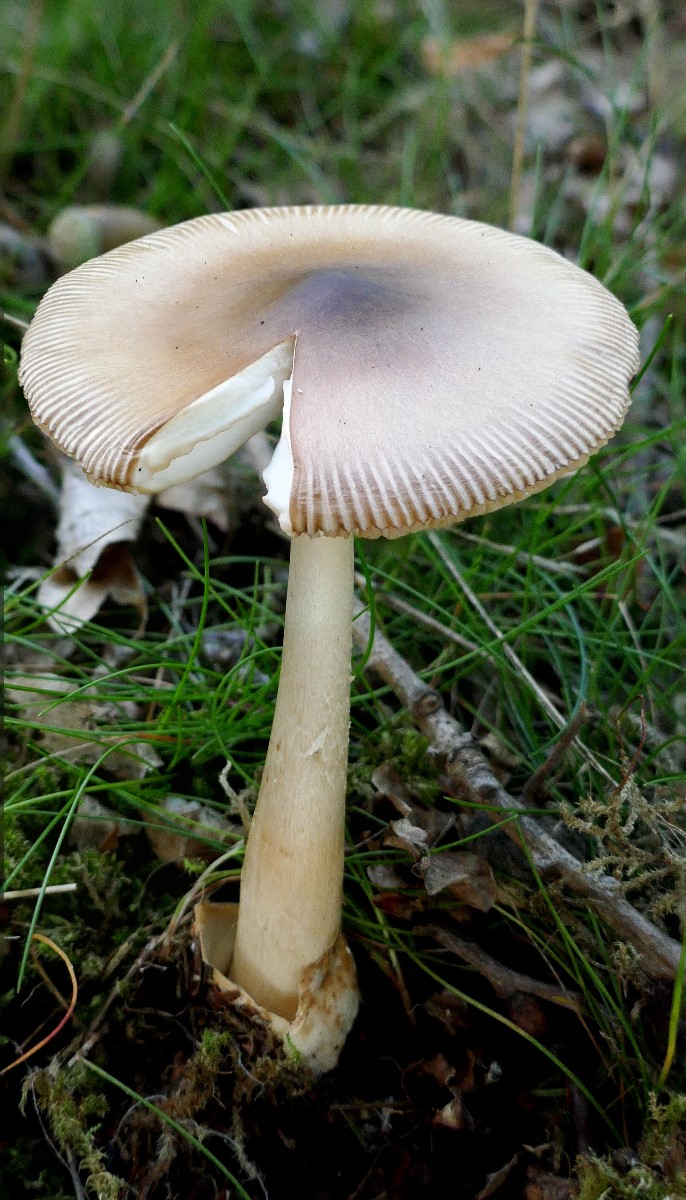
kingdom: Fungi
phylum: Basidiomycota
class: Agaricomycetes
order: Agaricales
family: Amanitaceae
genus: Amanita
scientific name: Amanita fulva
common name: brun kam-fluesvamp
